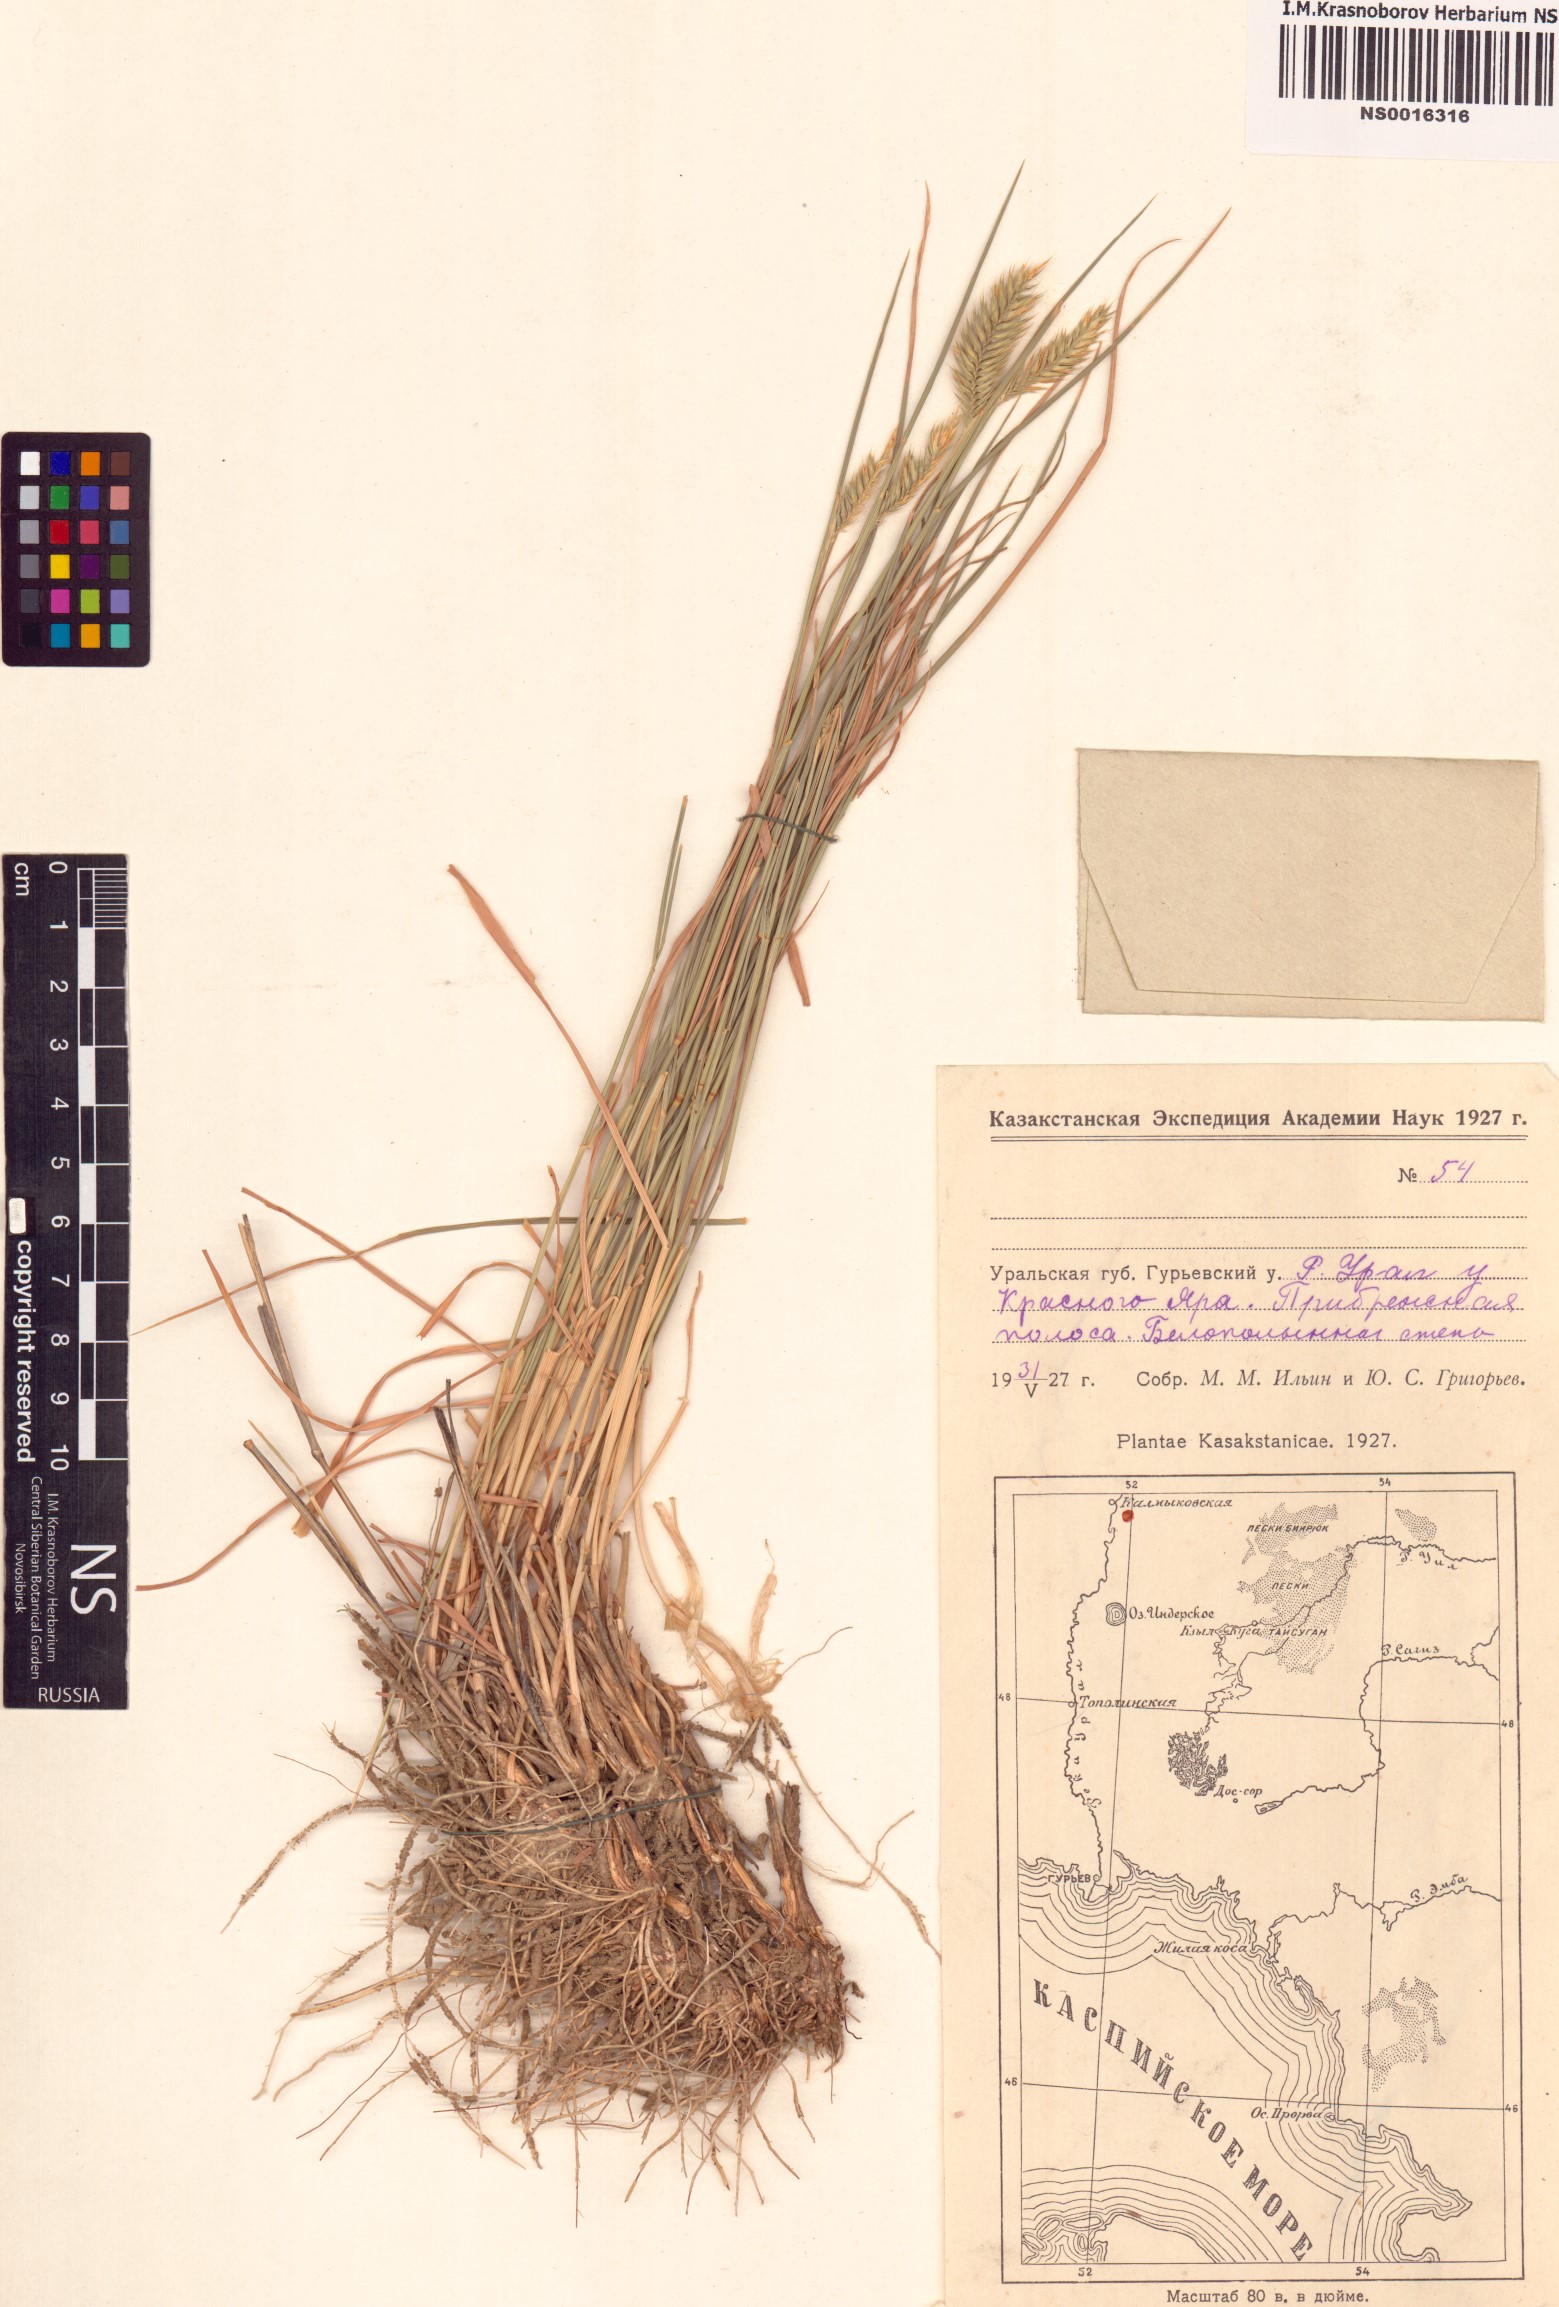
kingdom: Plantae
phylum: Tracheophyta
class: Liliopsida
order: Poales
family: Poaceae
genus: Agropyron
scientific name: Agropyron cristatum
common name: Crested wheatgrass
